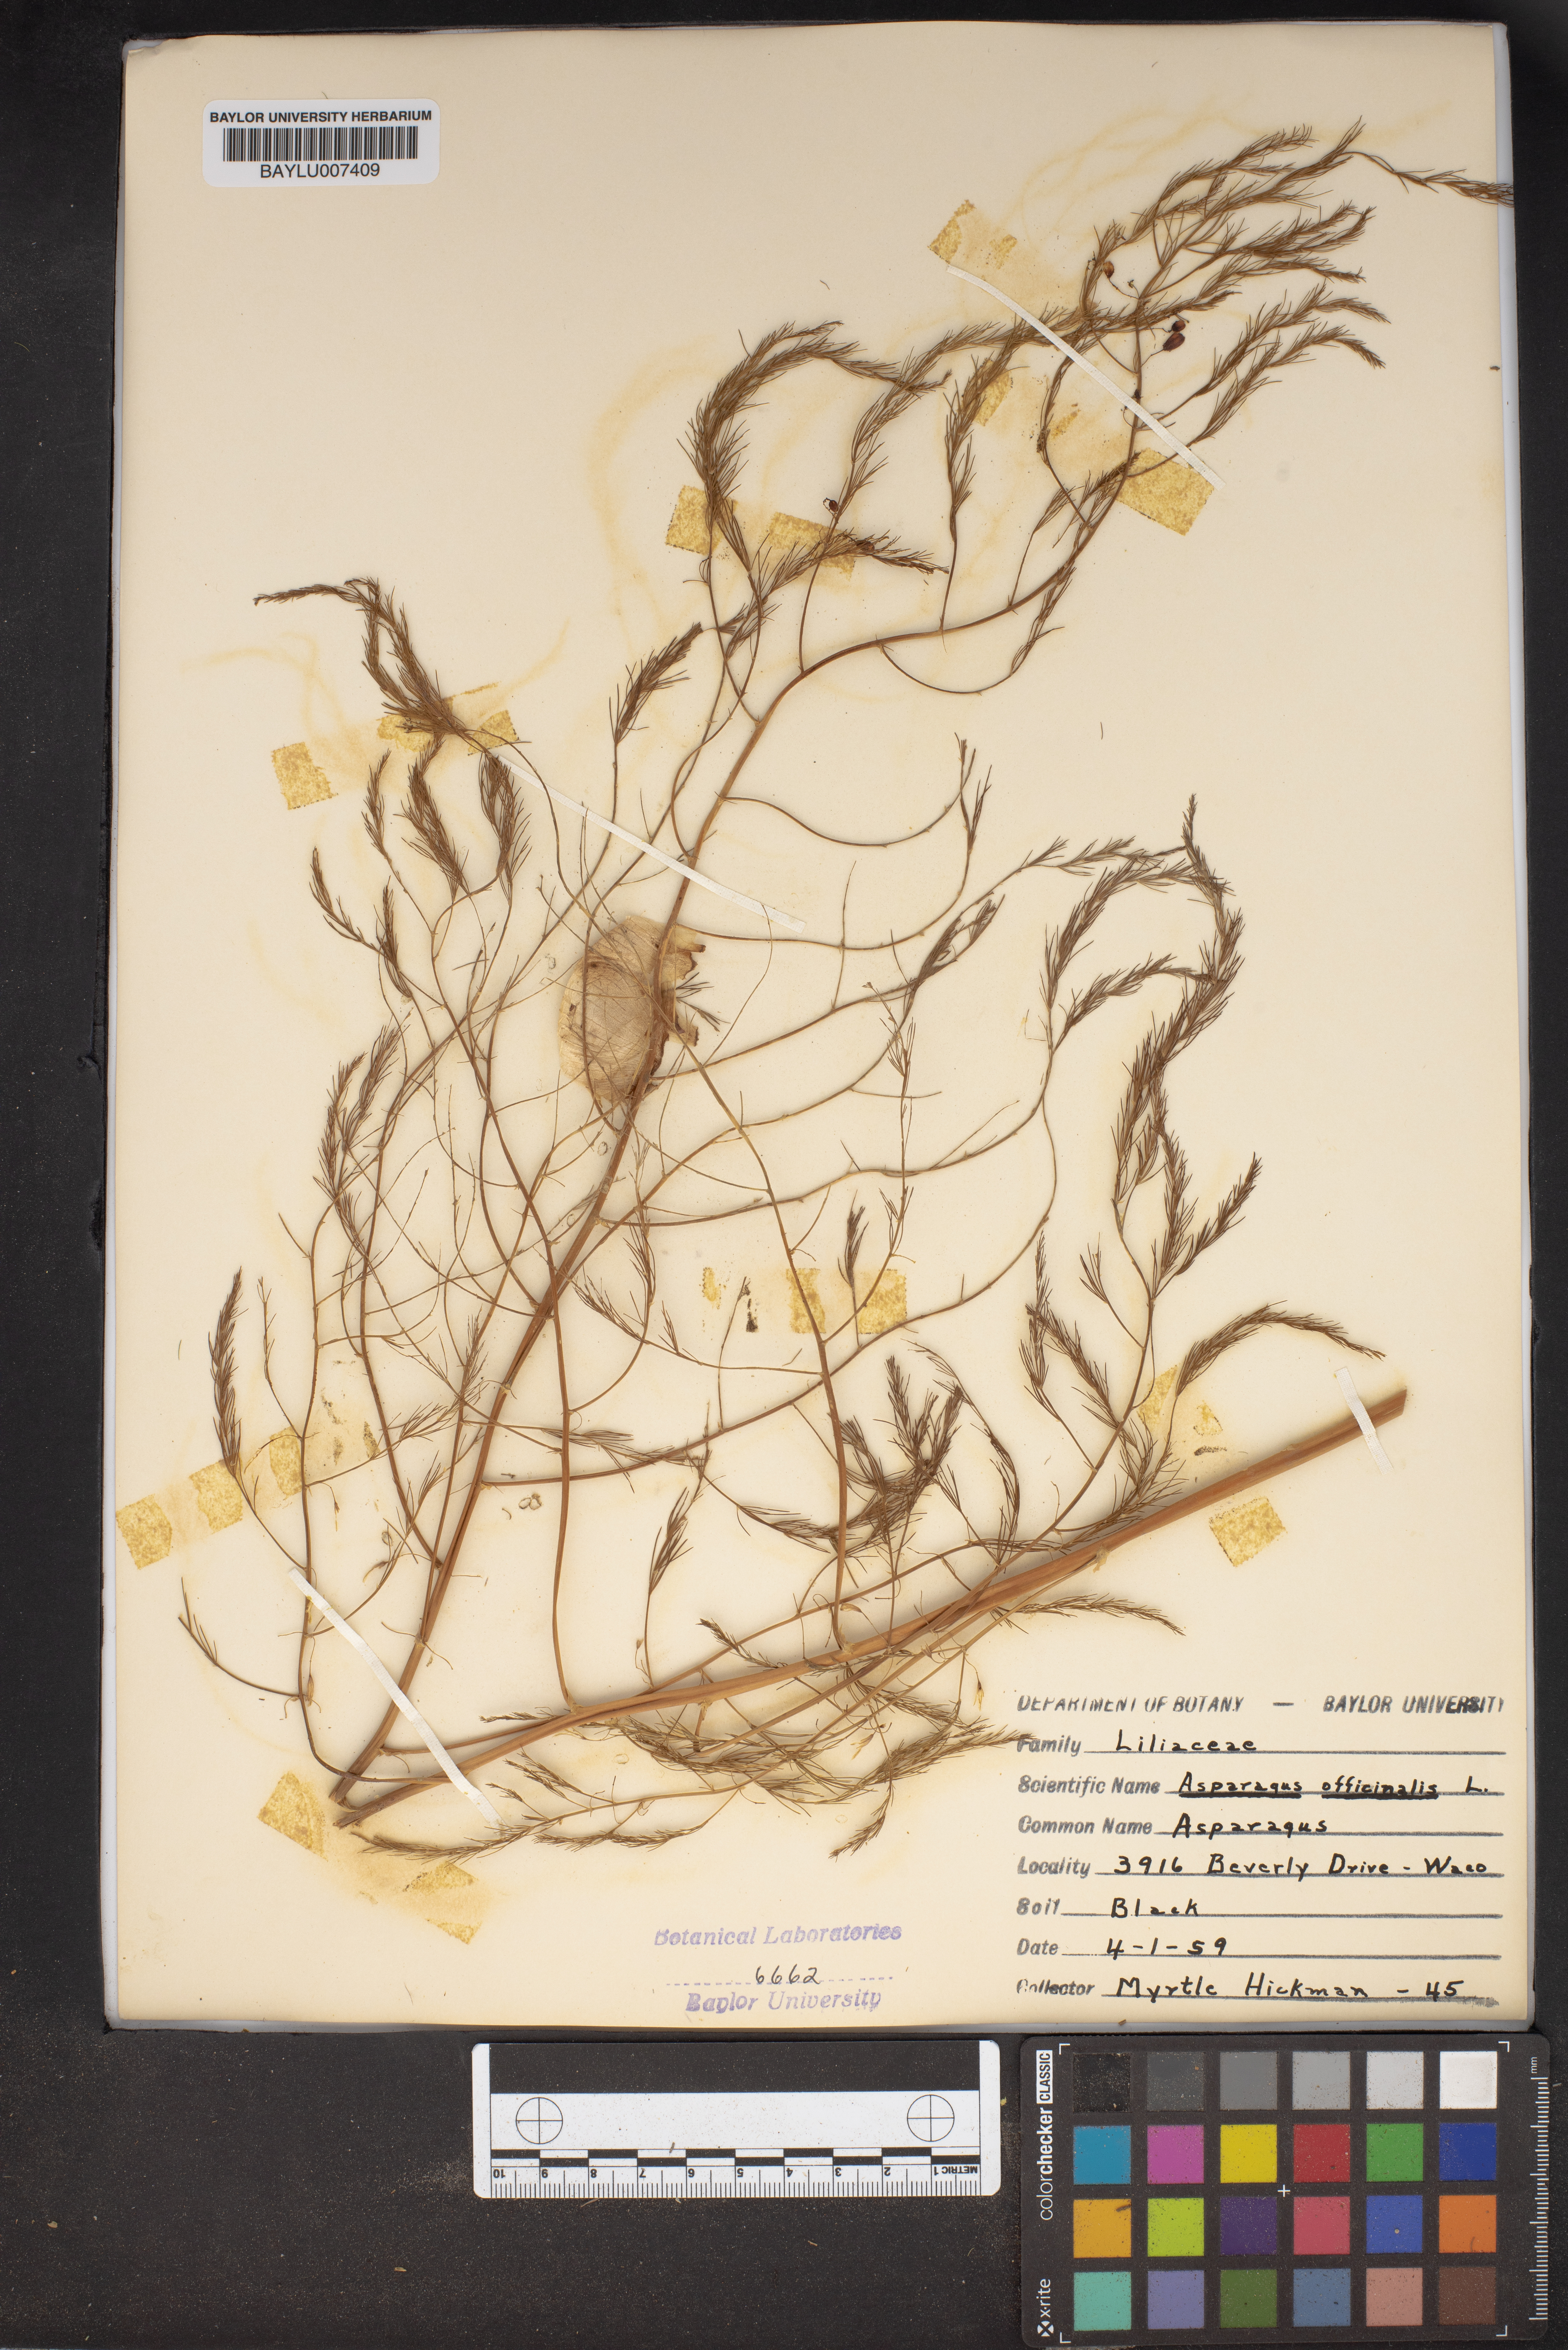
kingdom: Plantae
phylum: Tracheophyta
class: Liliopsida
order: Asparagales
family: Asparagaceae
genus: Asparagus
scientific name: Asparagus officinalis
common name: Garden asparagus
